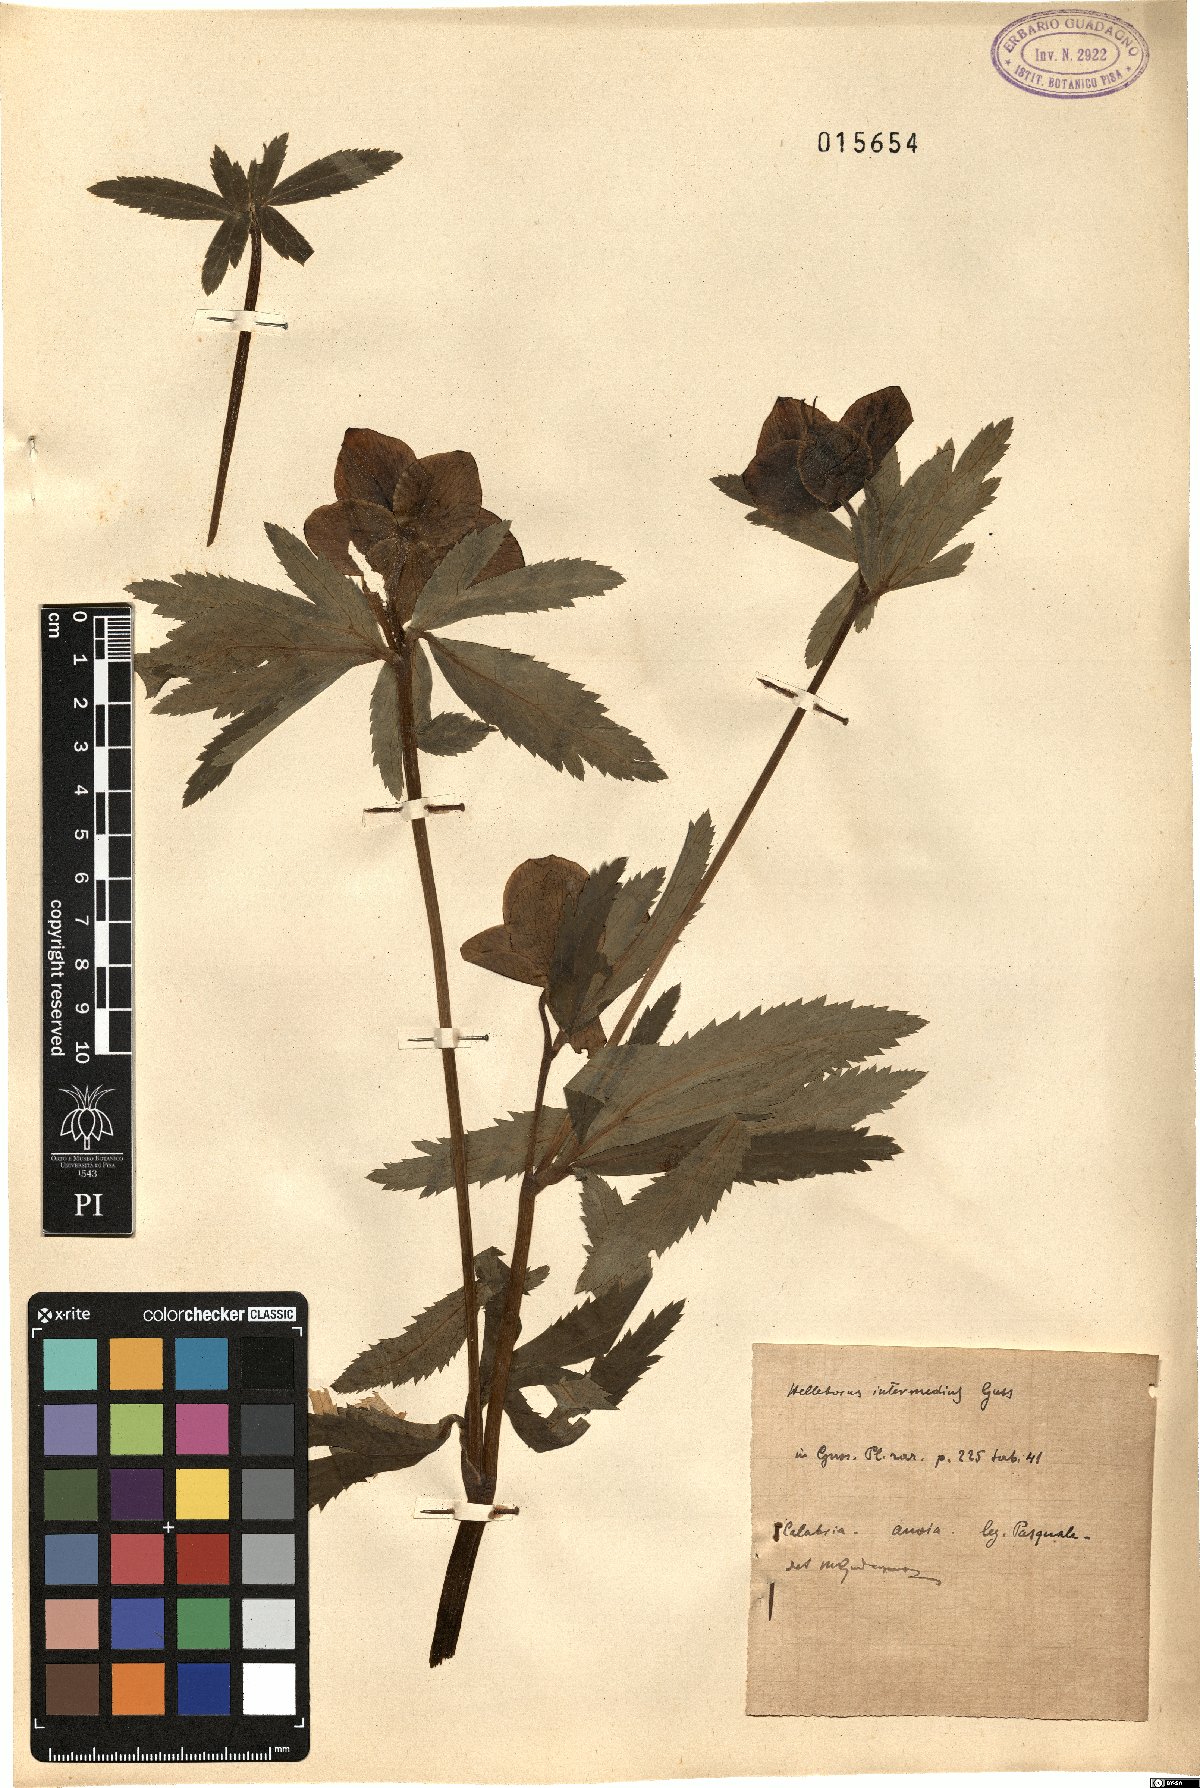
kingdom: Plantae
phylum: Tracheophyta
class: Magnoliopsida
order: Ranunculales
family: Ranunculaceae
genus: Helleborus
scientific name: Helleborus bocconei
